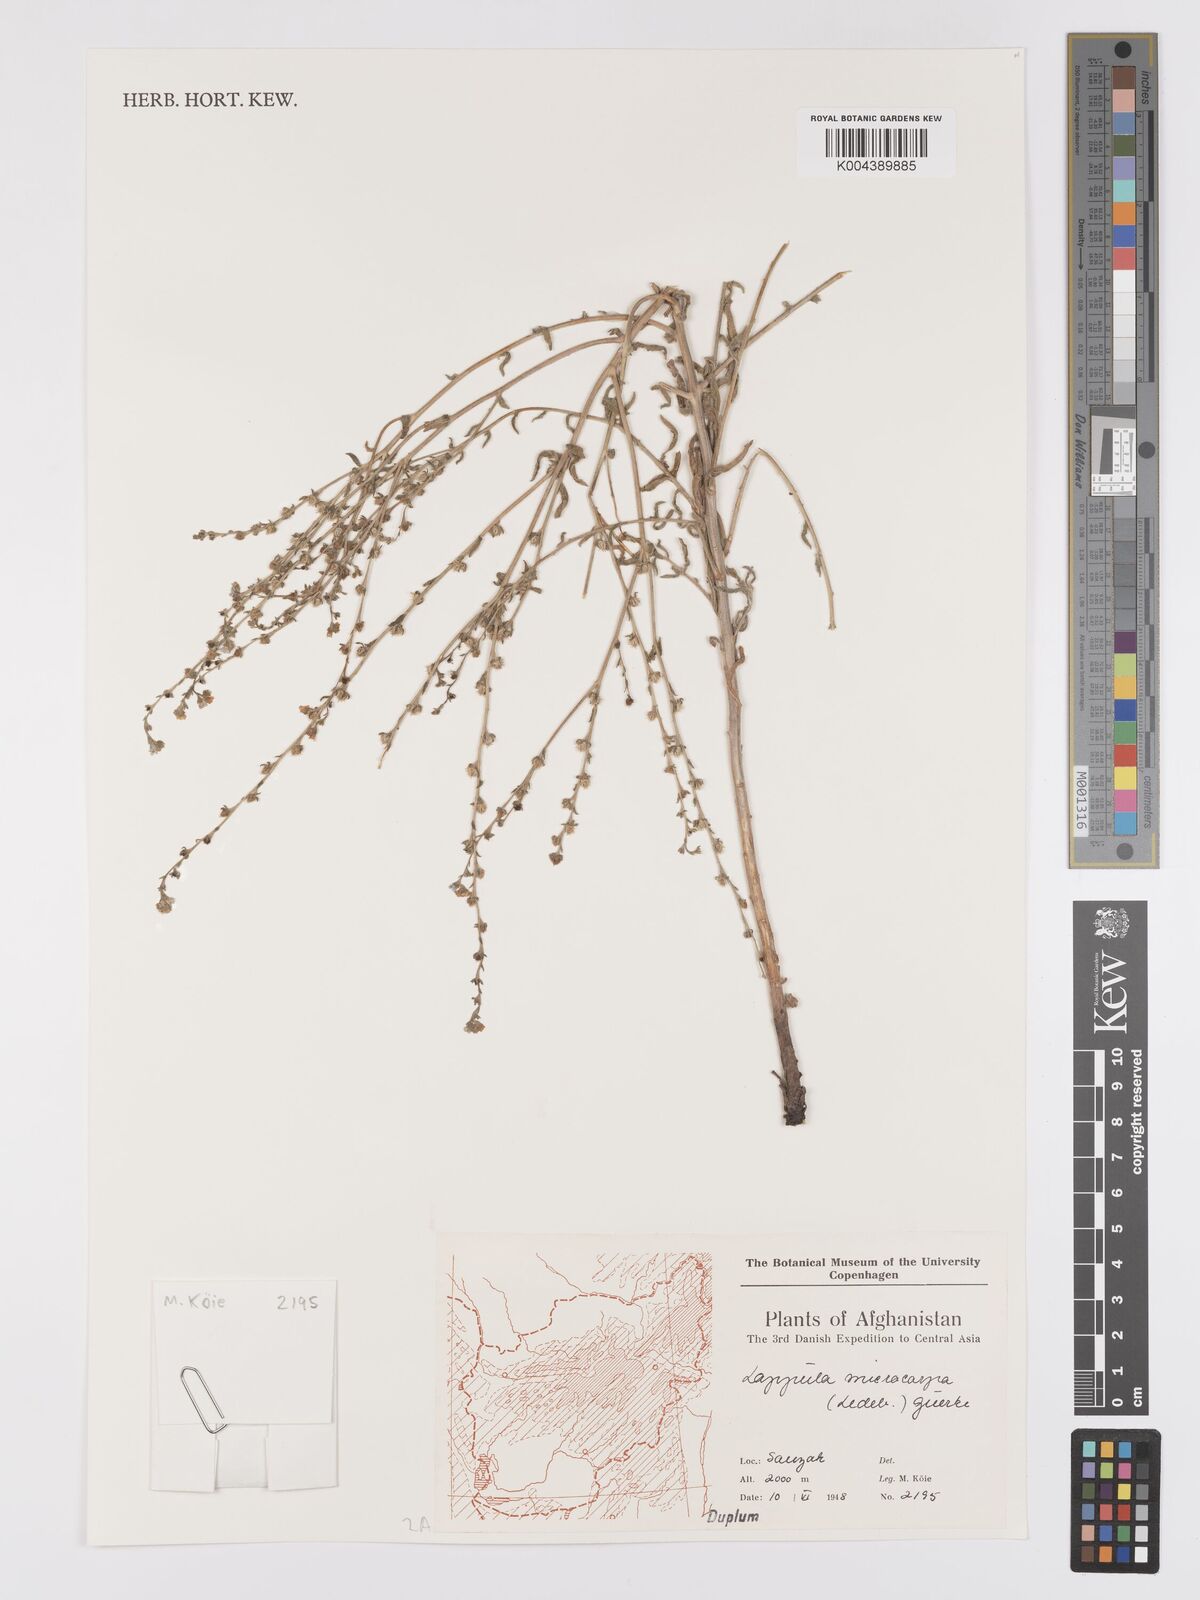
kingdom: Plantae
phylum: Tracheophyta
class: Magnoliopsida
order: Boraginales
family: Boraginaceae
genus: Lappula
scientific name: Lappula
